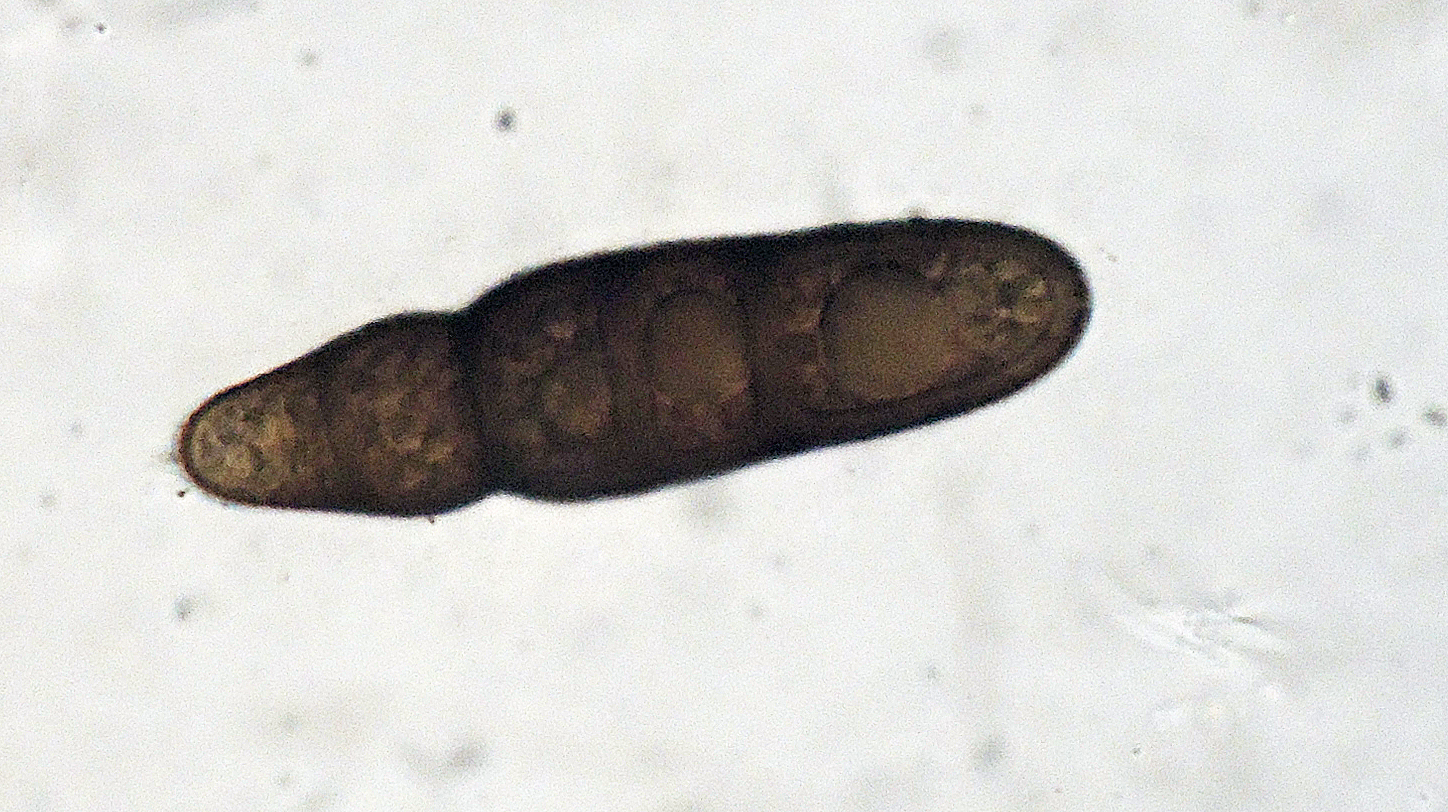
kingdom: Fungi
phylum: Ascomycota
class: Dothideomycetes
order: Pleosporales
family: Massarinaceae
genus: Helminthosporium
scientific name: Helminthosporium oligosporum
